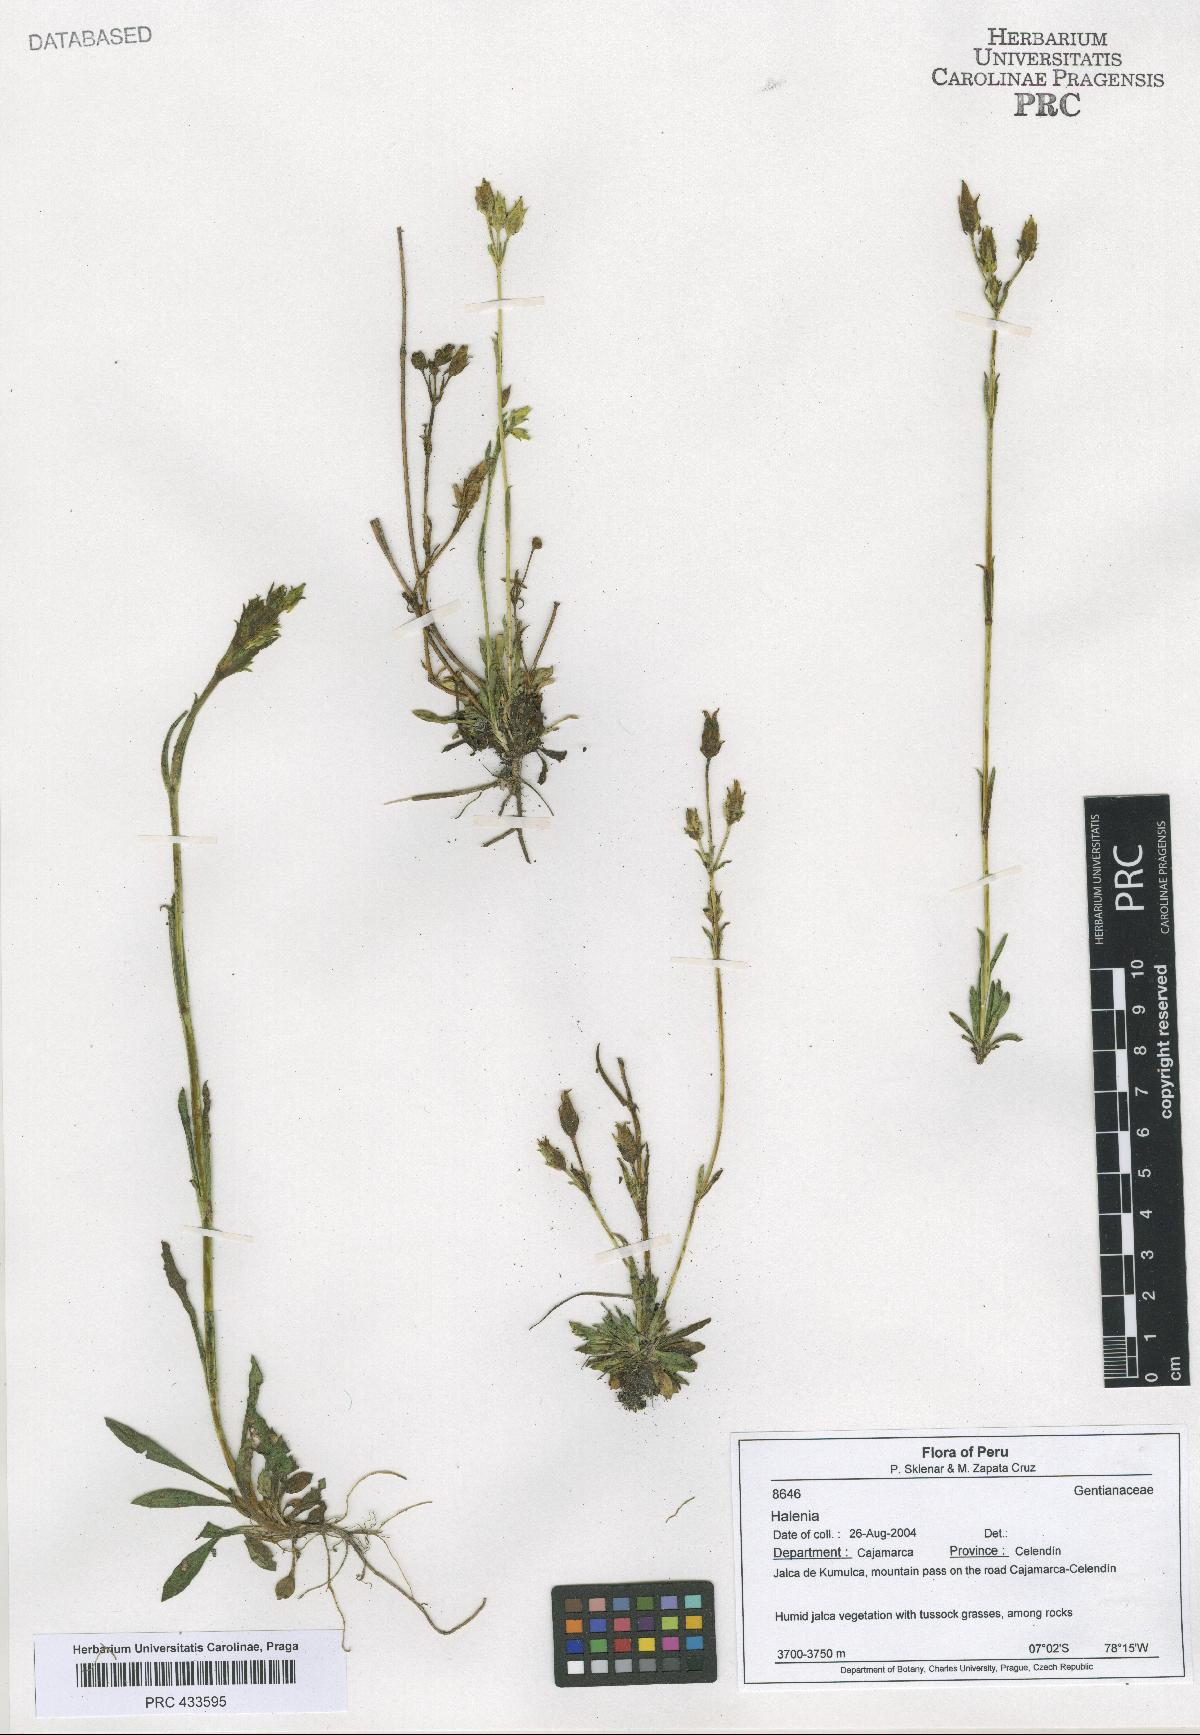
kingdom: Plantae
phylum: Tracheophyta
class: Magnoliopsida
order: Gentianales
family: Gentianaceae
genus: Halenia
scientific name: Halenia
